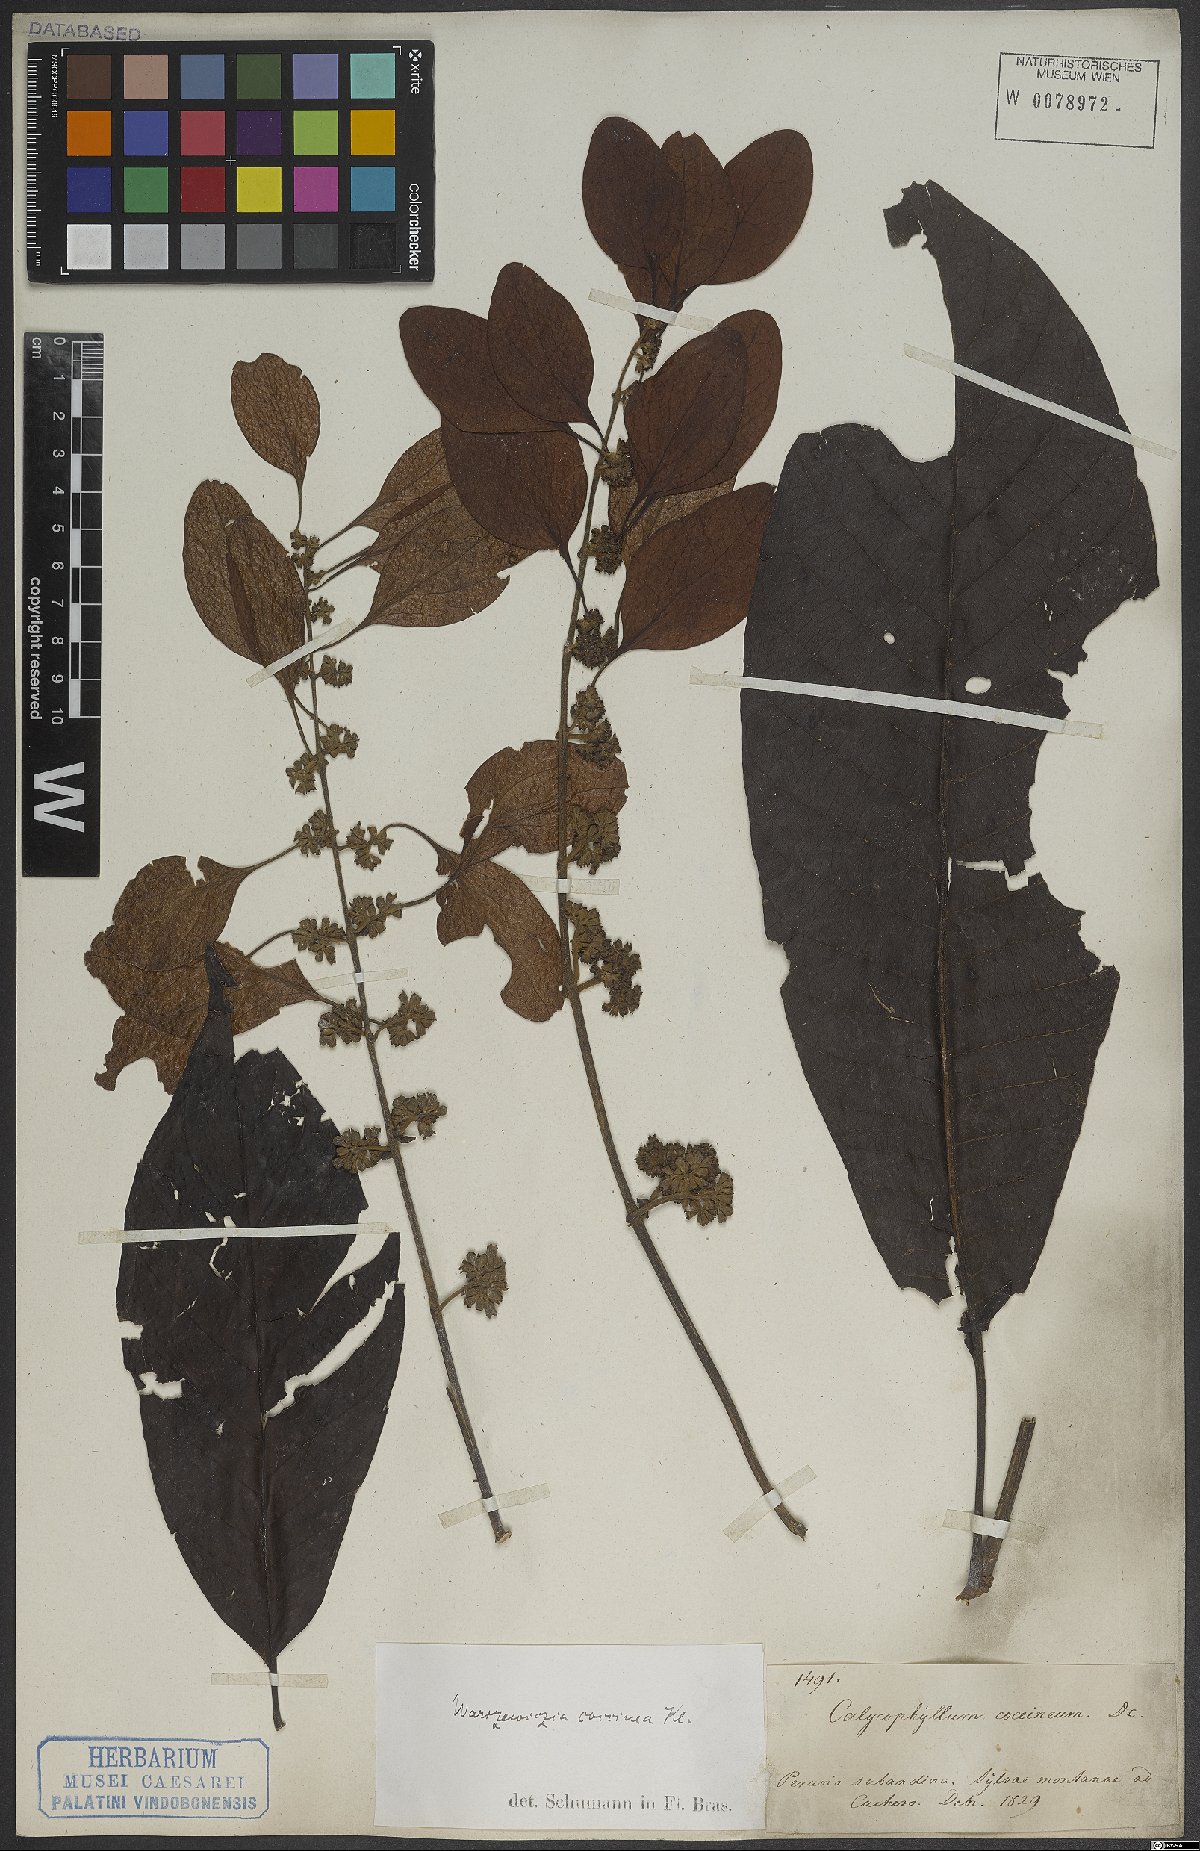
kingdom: Plantae
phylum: Tracheophyta
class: Magnoliopsida
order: Gentianales
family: Rubiaceae
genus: Warszewiczia
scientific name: Warszewiczia coccinea
